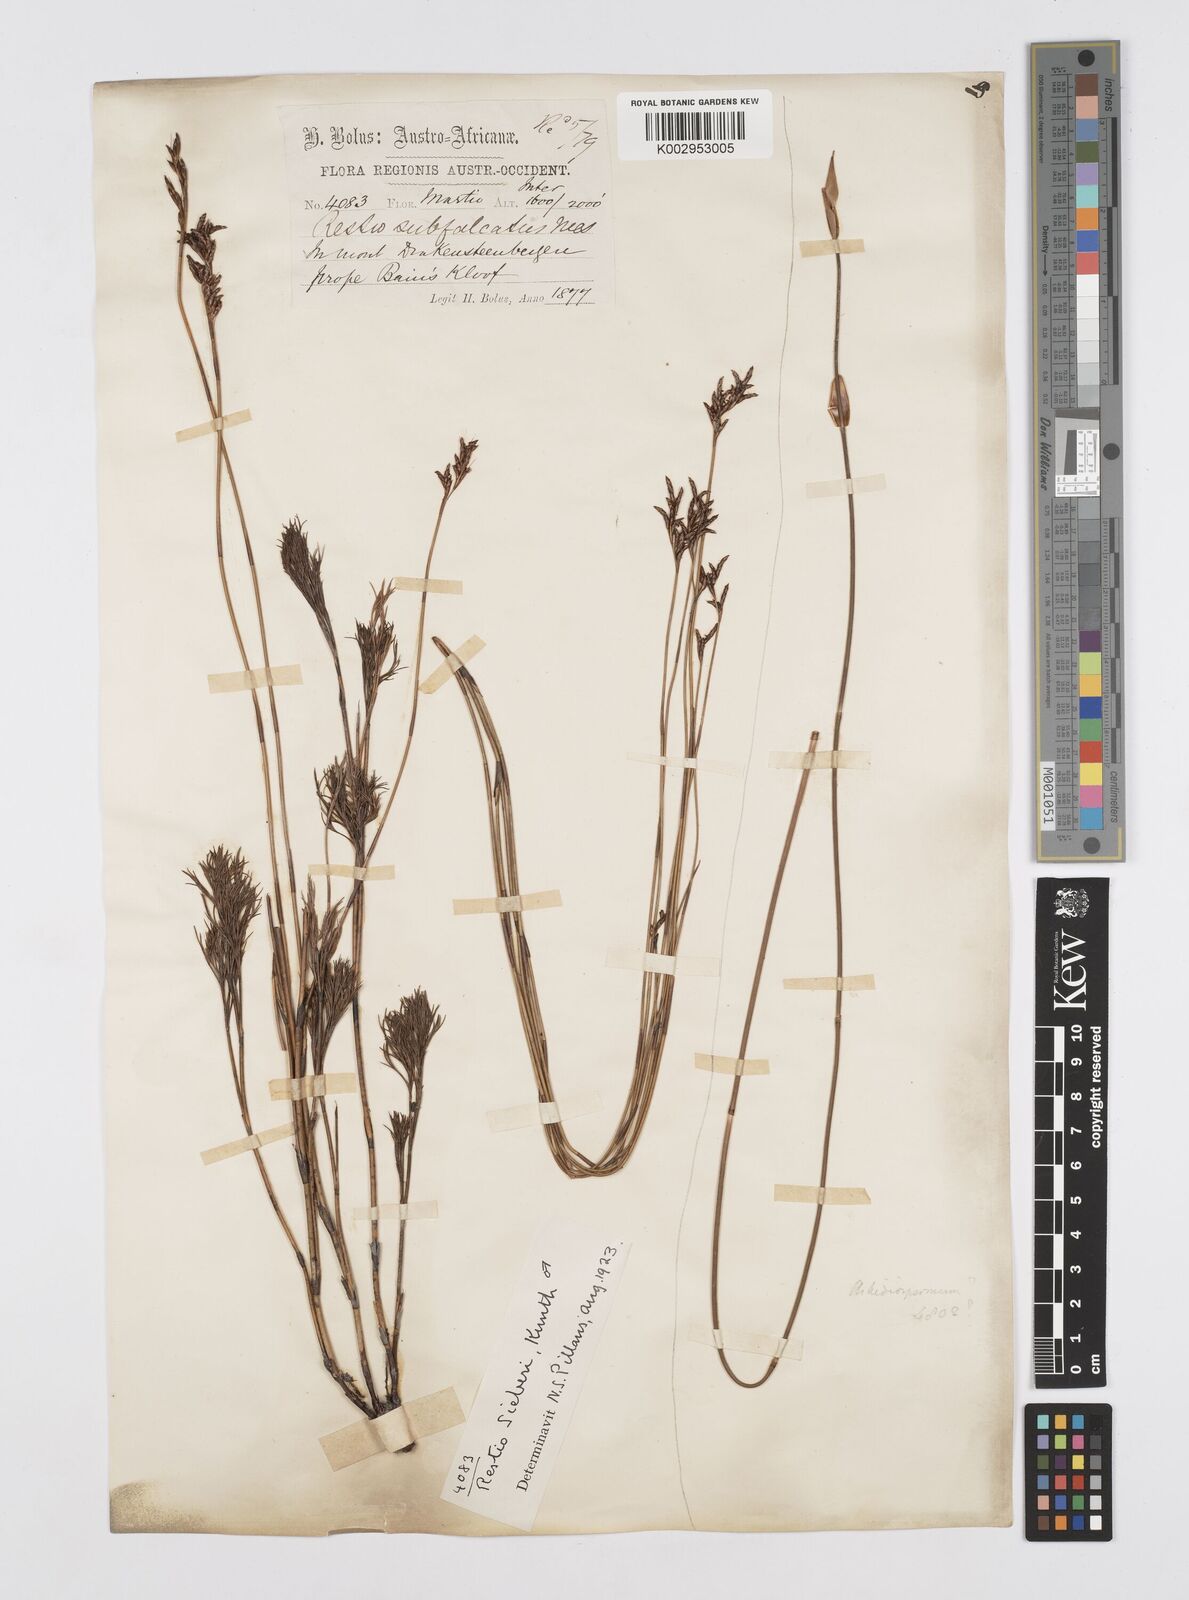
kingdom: Plantae
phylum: Tracheophyta
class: Liliopsida
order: Poales
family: Restionaceae
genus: Restio
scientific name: Restio sieberi
